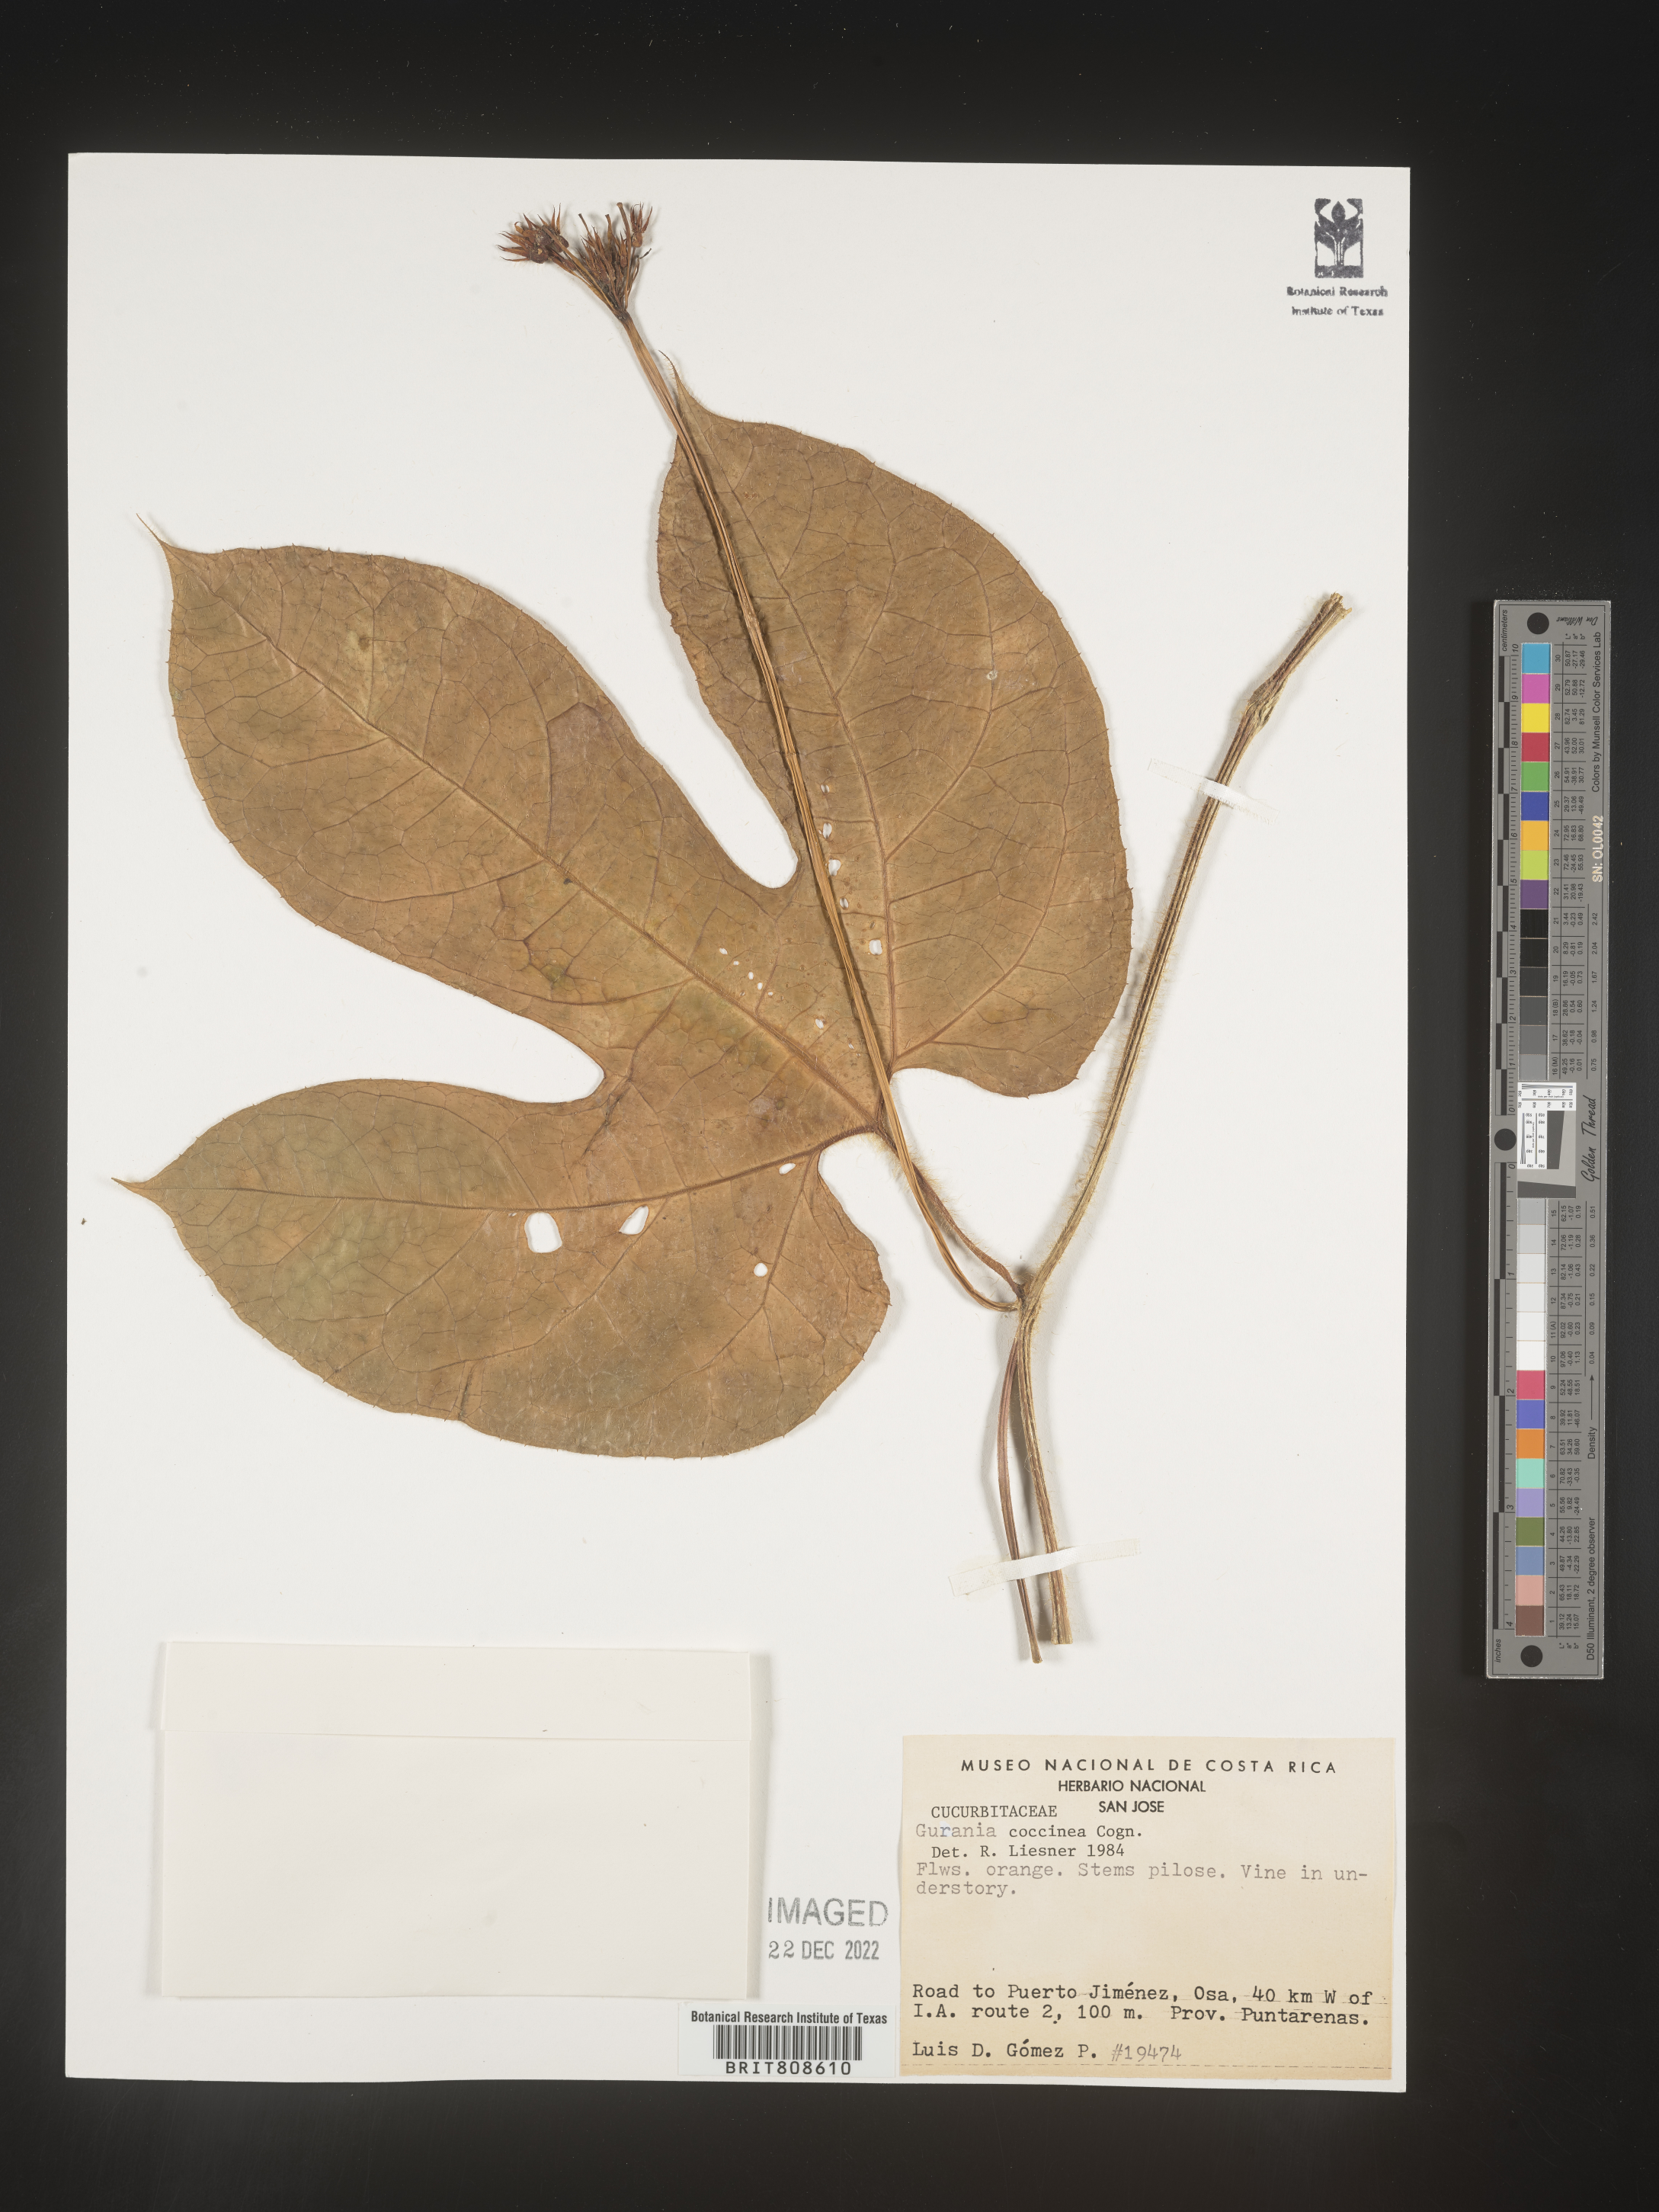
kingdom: Plantae
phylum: Tracheophyta
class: Magnoliopsida
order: Cucurbitales
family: Cucurbitaceae
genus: Gurania
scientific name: Gurania
